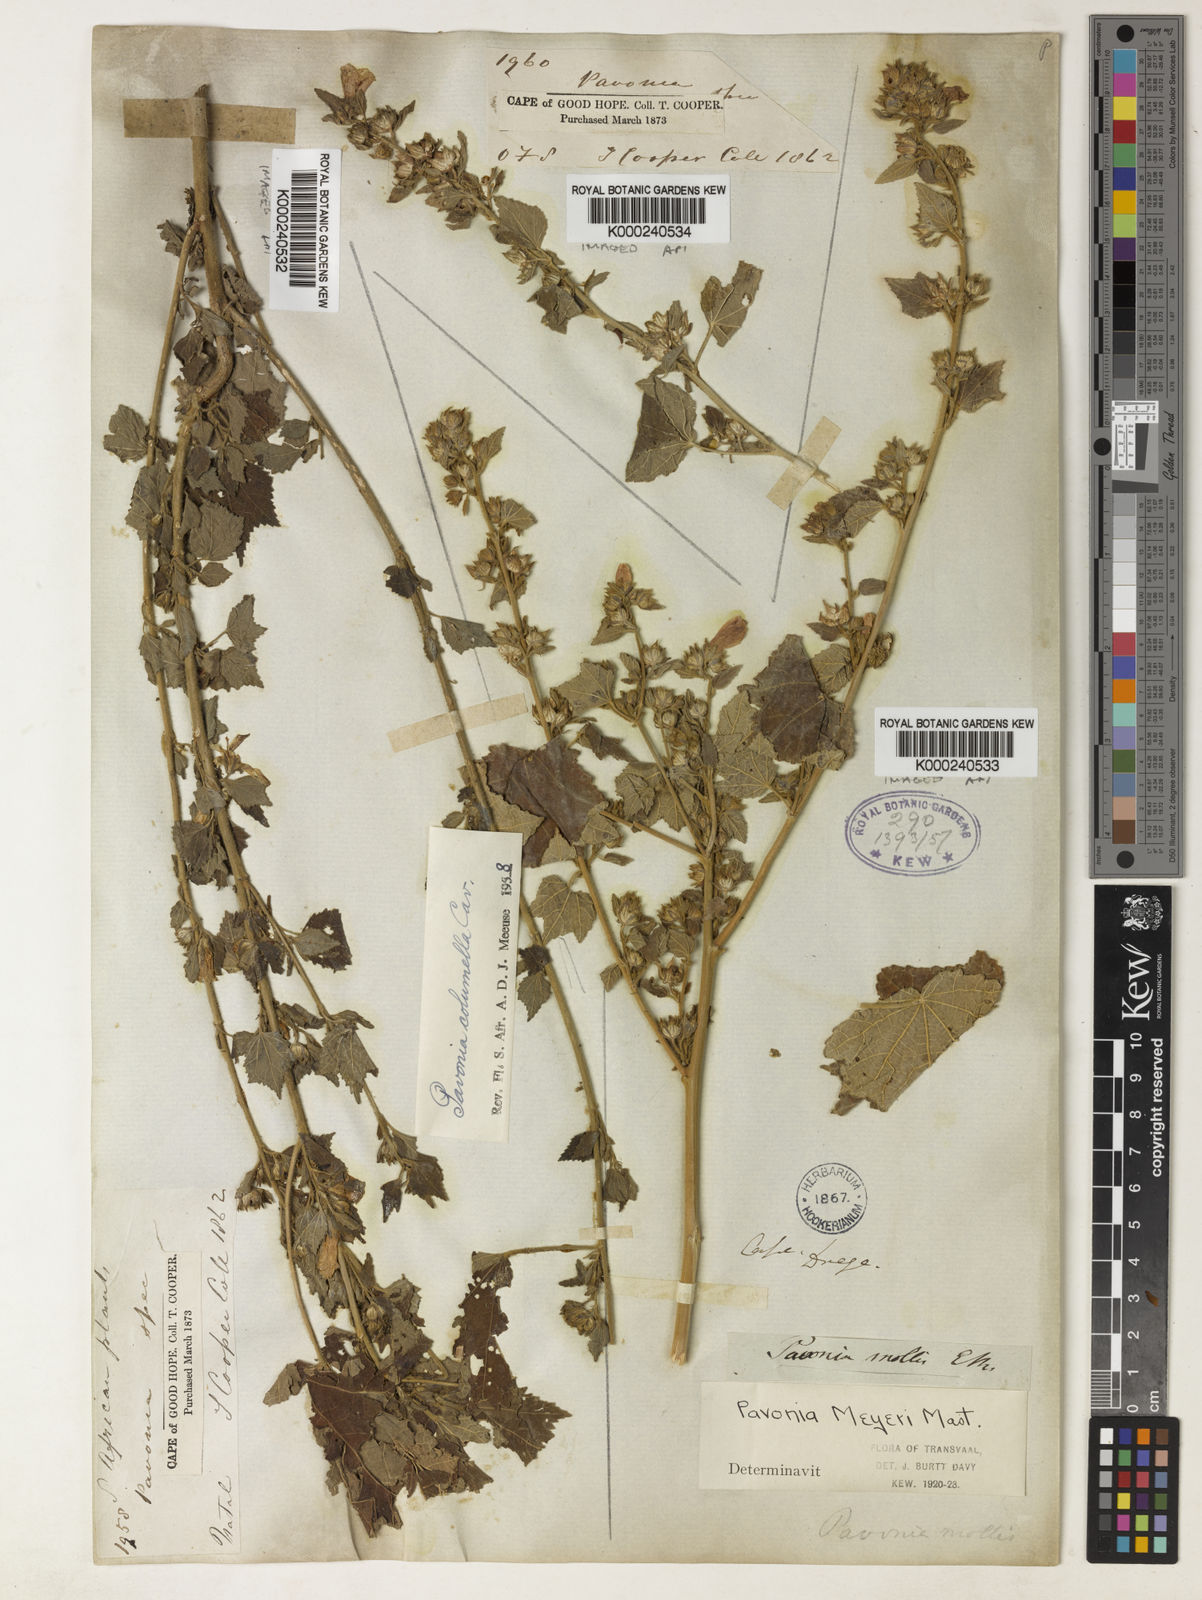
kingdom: Plantae
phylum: Tracheophyta
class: Magnoliopsida
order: Malvales
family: Malvaceae
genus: Pavonia
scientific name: Pavonia columella
